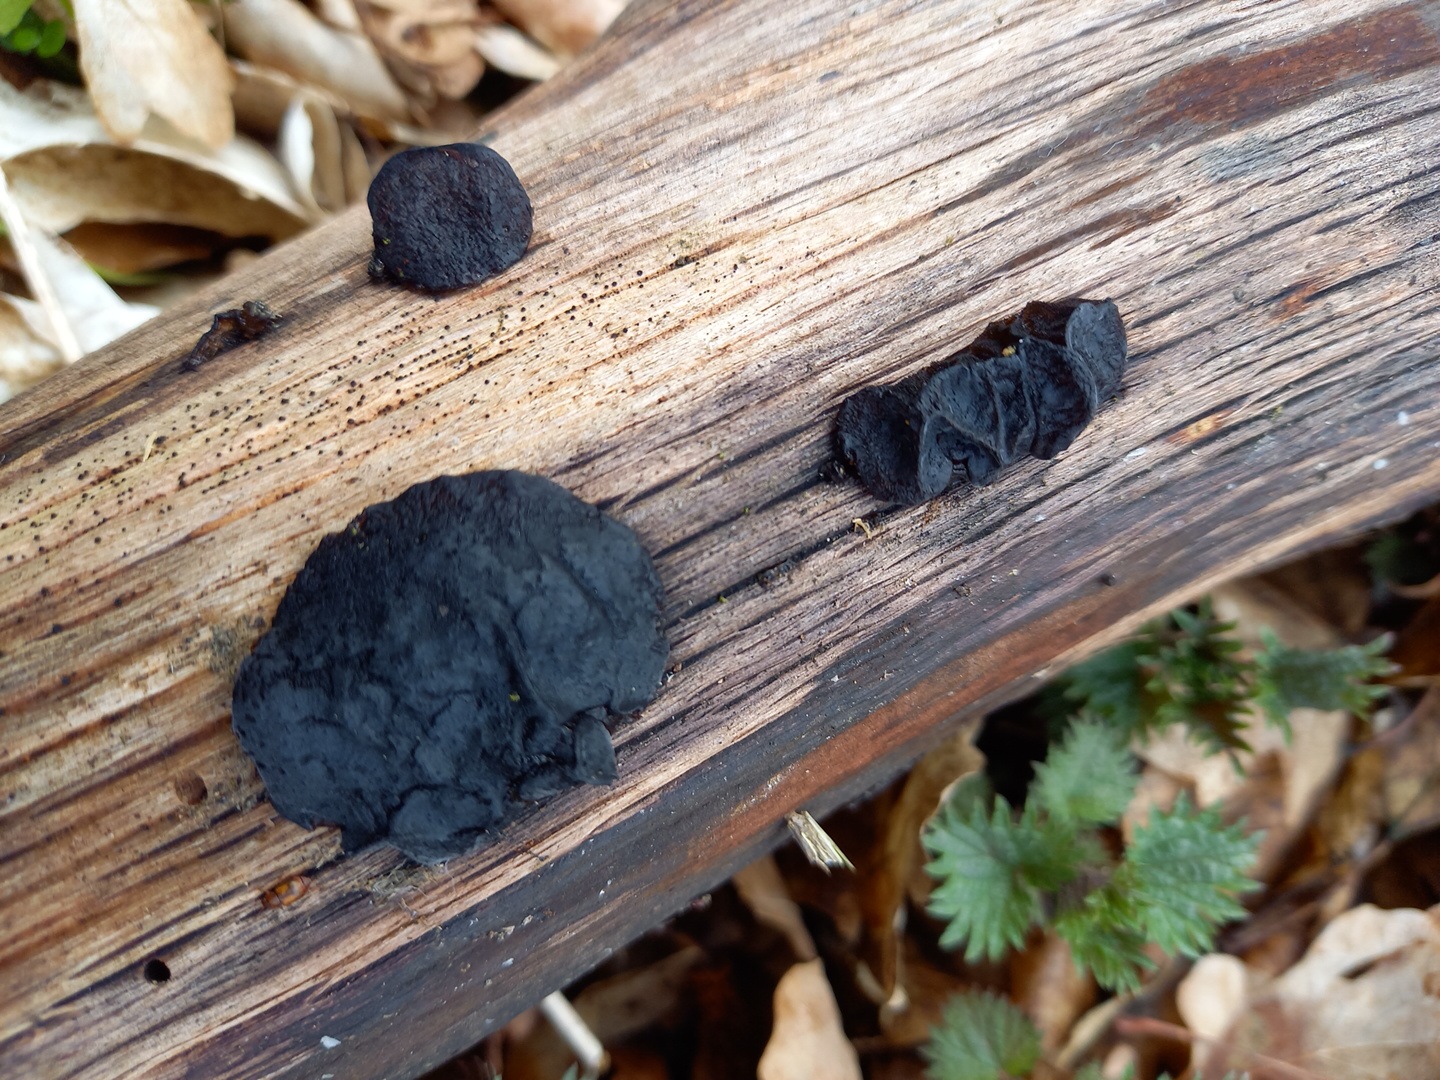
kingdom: Fungi
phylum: Basidiomycota
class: Tremellomycetes
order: Tremellales
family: Exidiaceae
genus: Exidia
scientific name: Exidia
